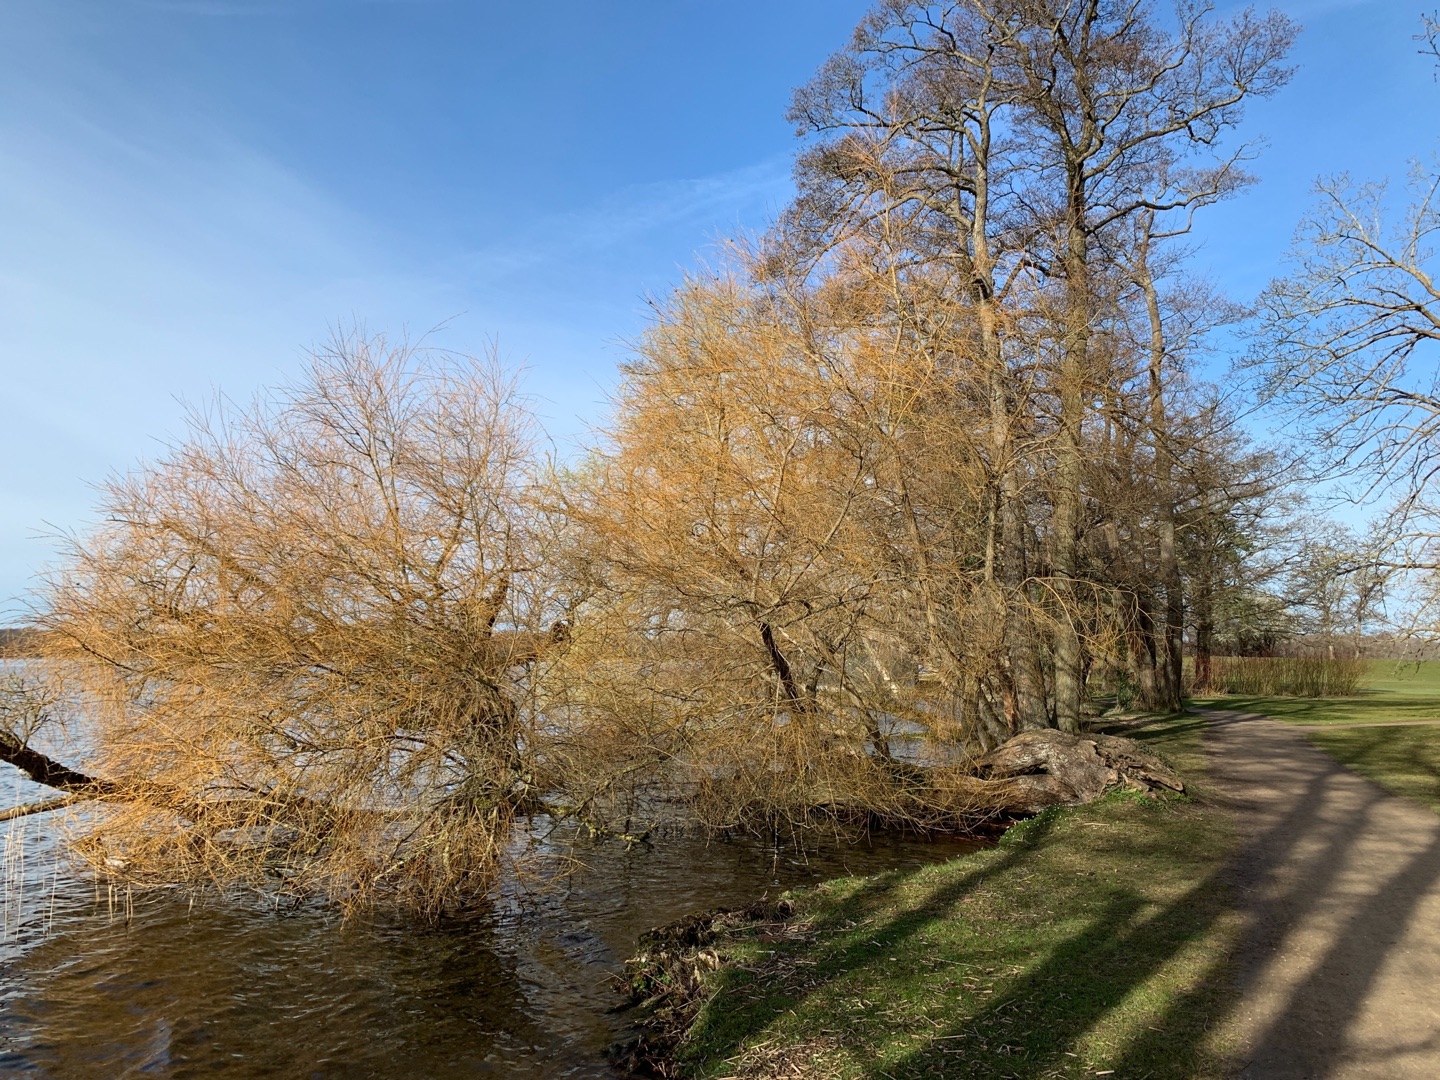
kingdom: Animalia
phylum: Chordata
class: Aves
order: Anseriformes
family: Anatidae
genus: Anas
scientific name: Anas platyrhynchos
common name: Gråand
